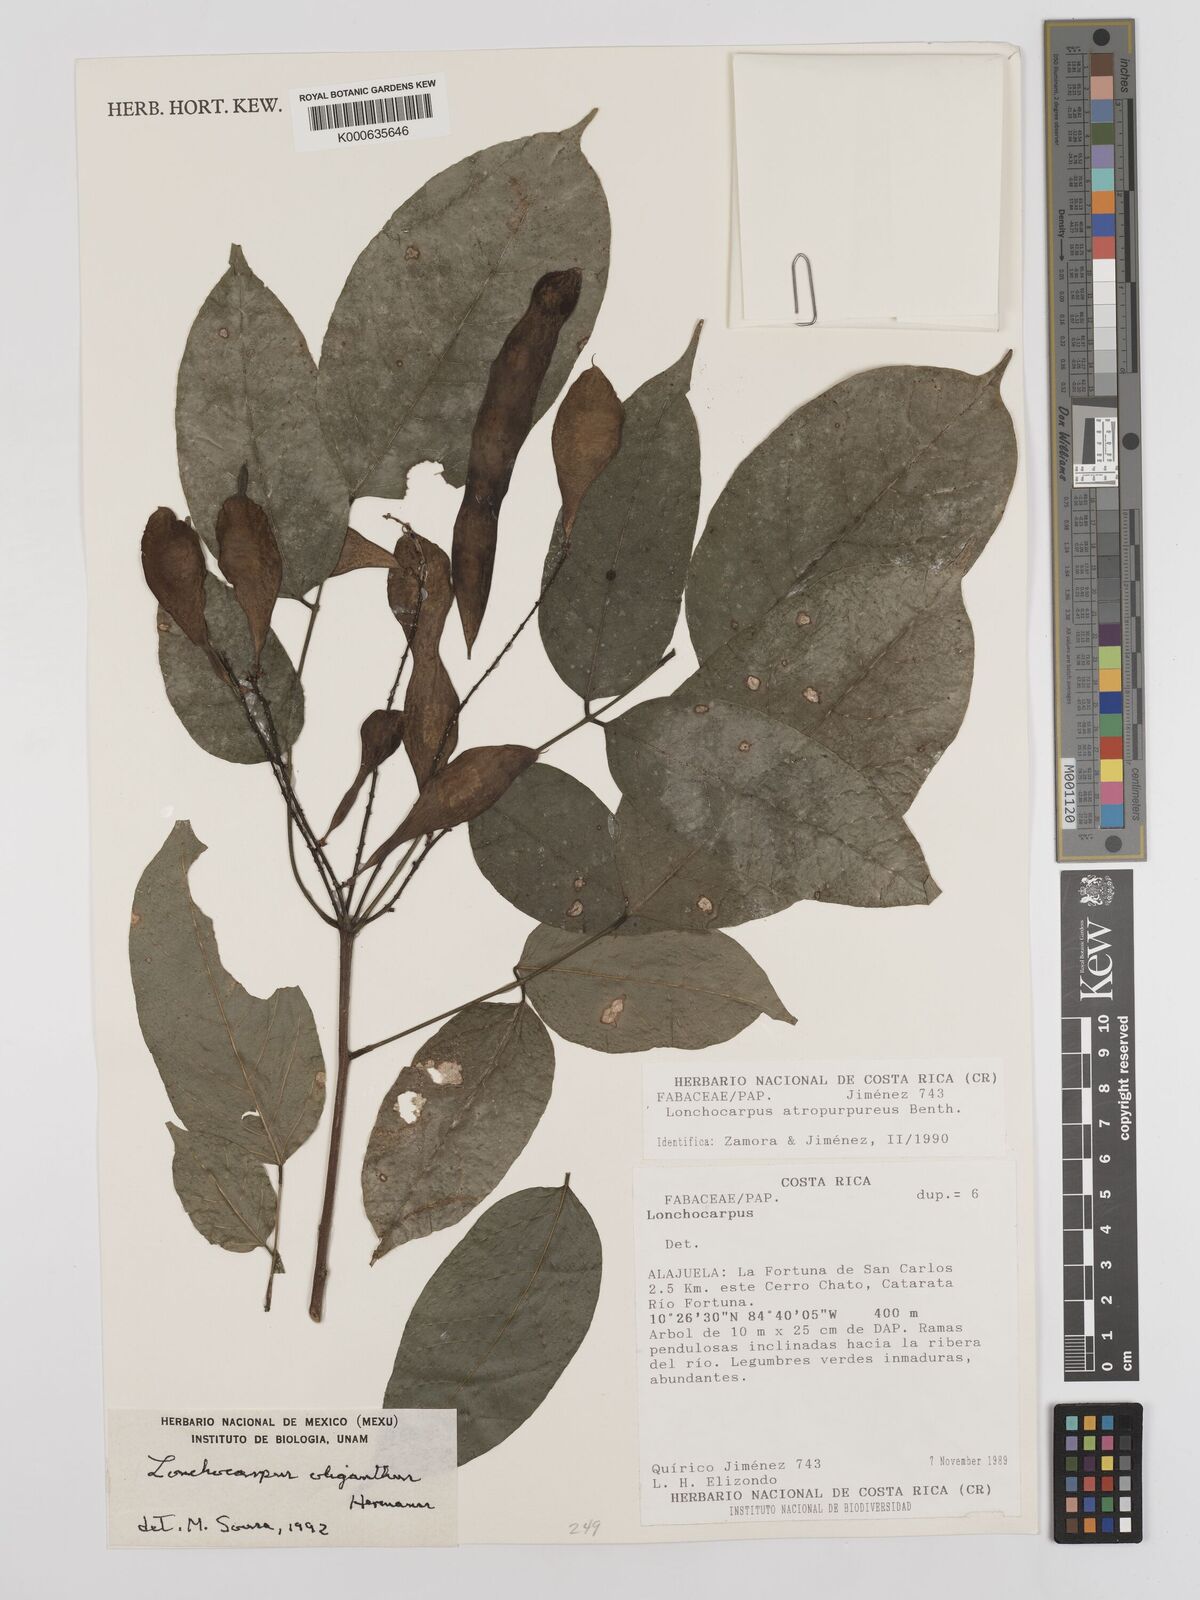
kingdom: Plantae
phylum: Tracheophyta
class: Magnoliopsida
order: Fabales
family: Fabaceae
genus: Lonchocarpus
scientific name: Lonchocarpus oliganthus
